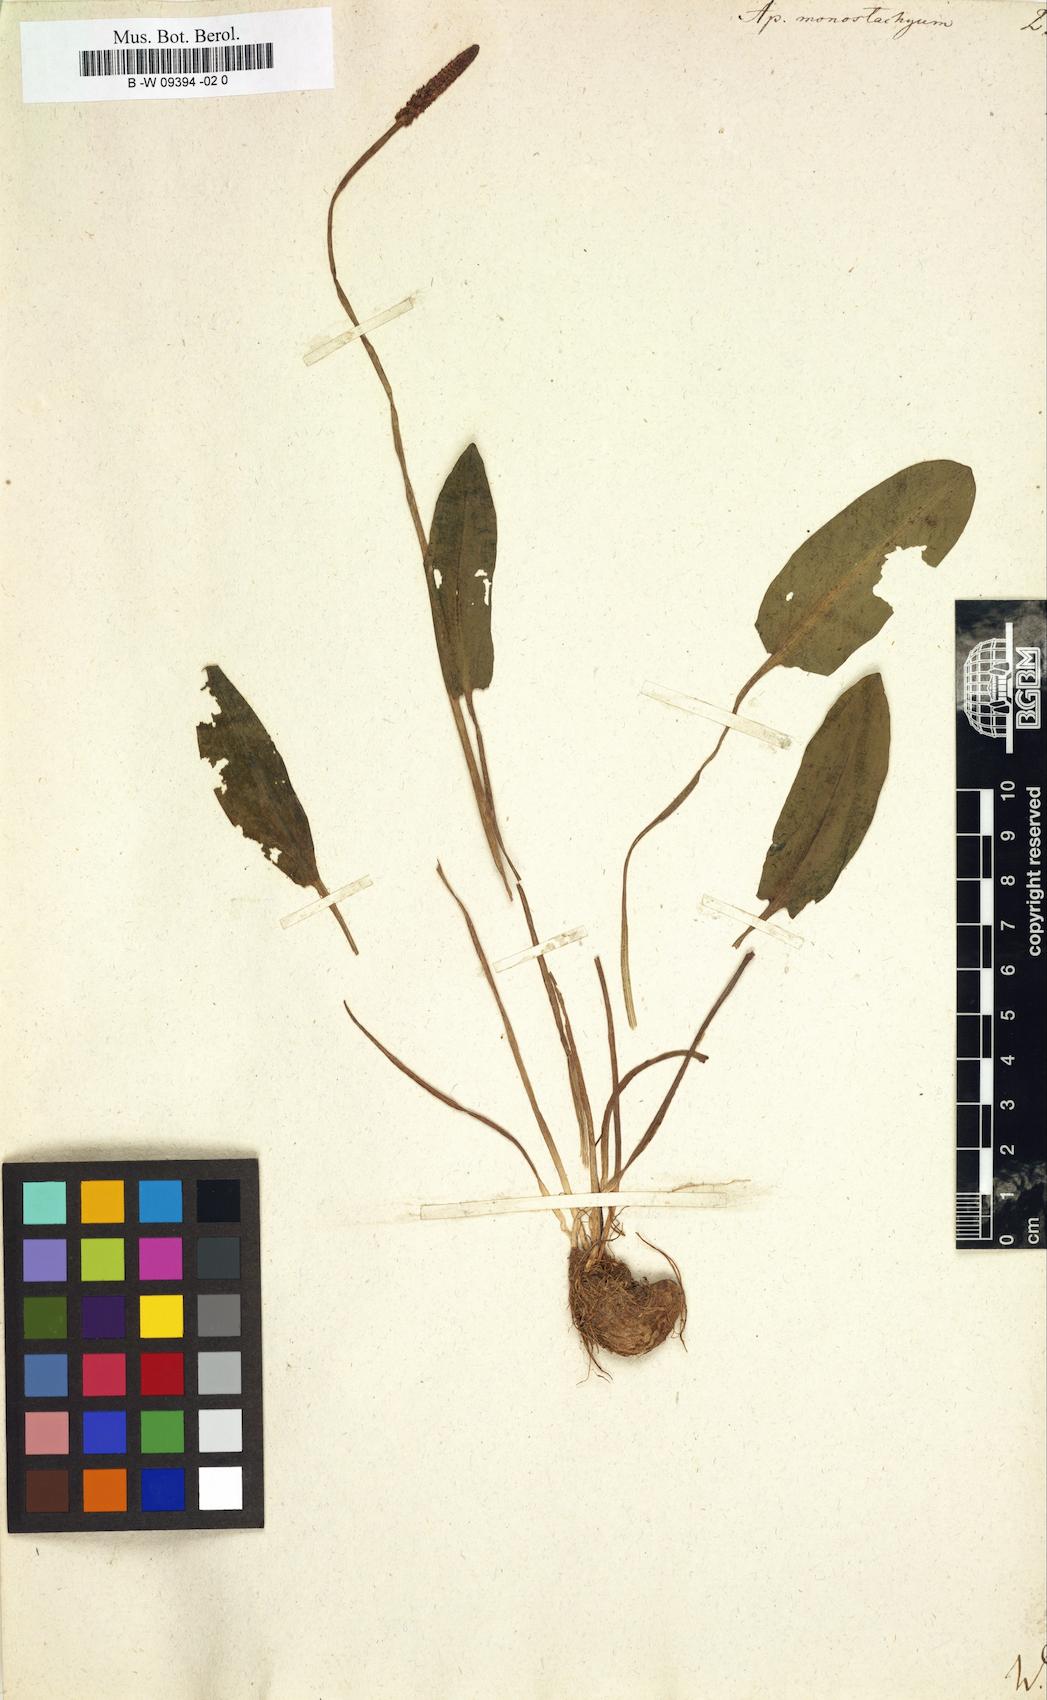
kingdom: Plantae
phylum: Tracheophyta
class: Liliopsida
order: Alismatales
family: Aponogetonaceae
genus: Aponogeton
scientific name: Aponogeton natans
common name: Drifting sword plant
